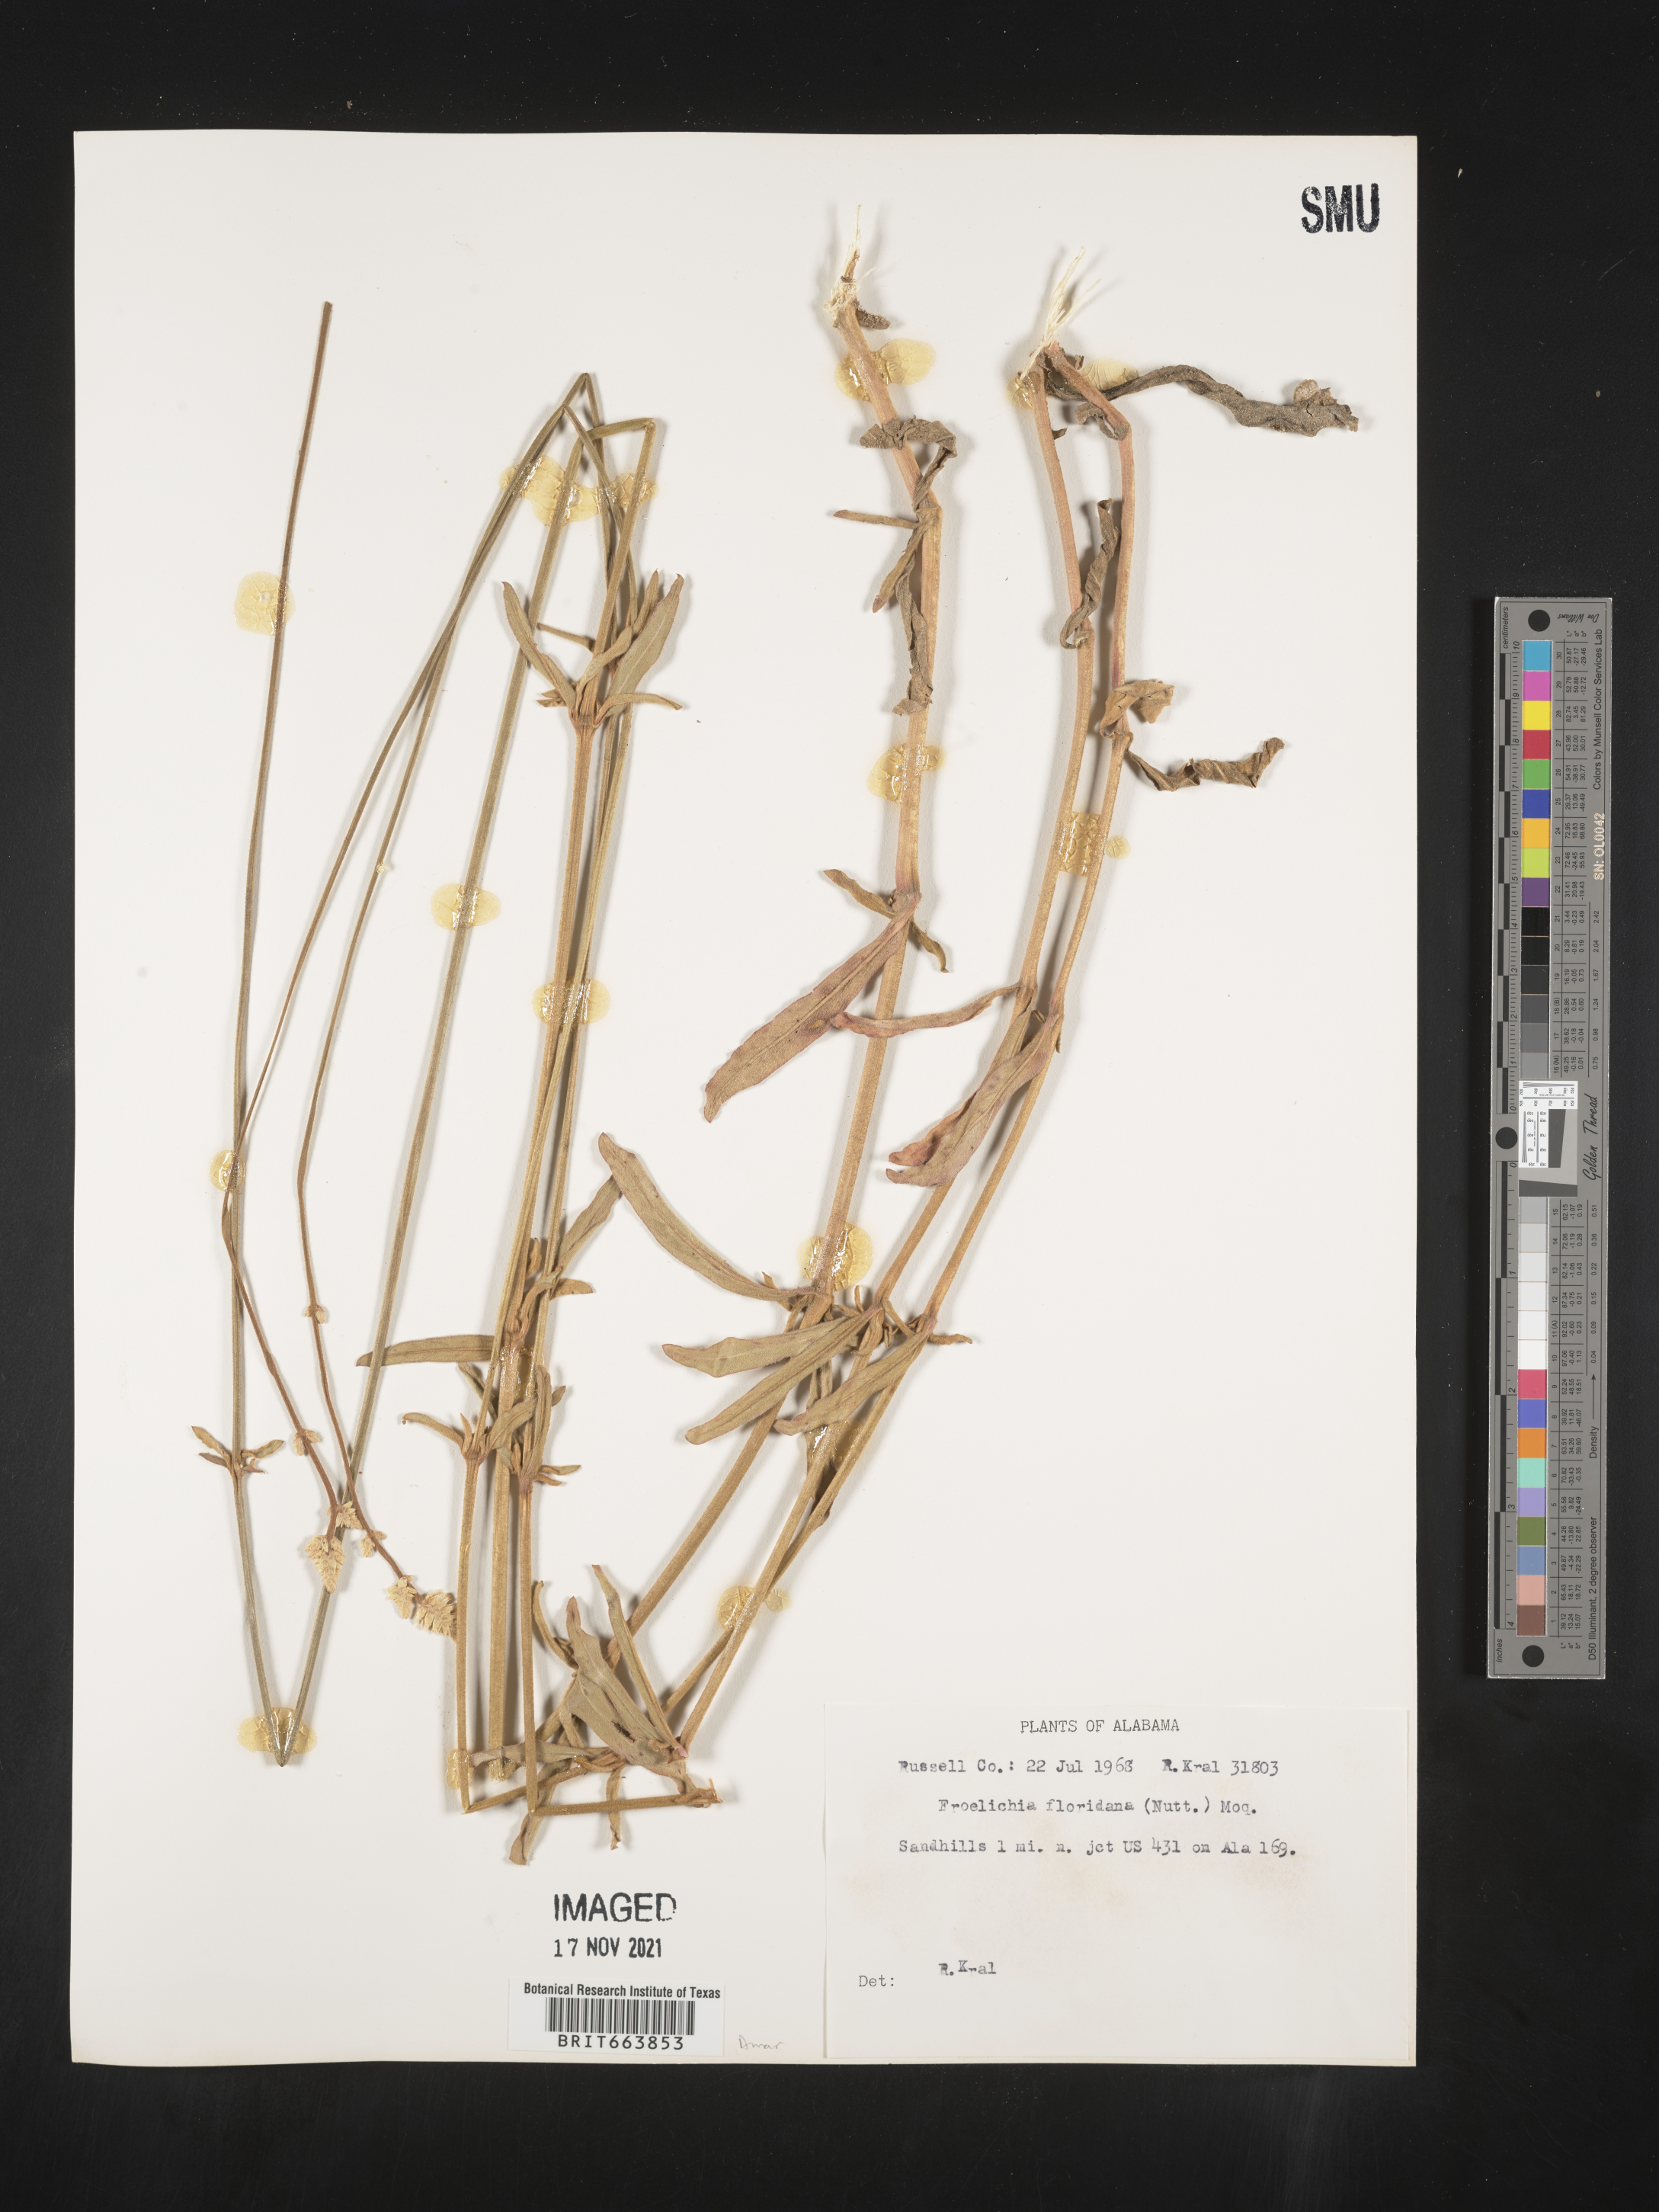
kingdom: Plantae
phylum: Tracheophyta
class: Magnoliopsida
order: Caryophyllales
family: Amaranthaceae
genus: Froelichia
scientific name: Froelichia floridana
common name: Florida snake-cotton
